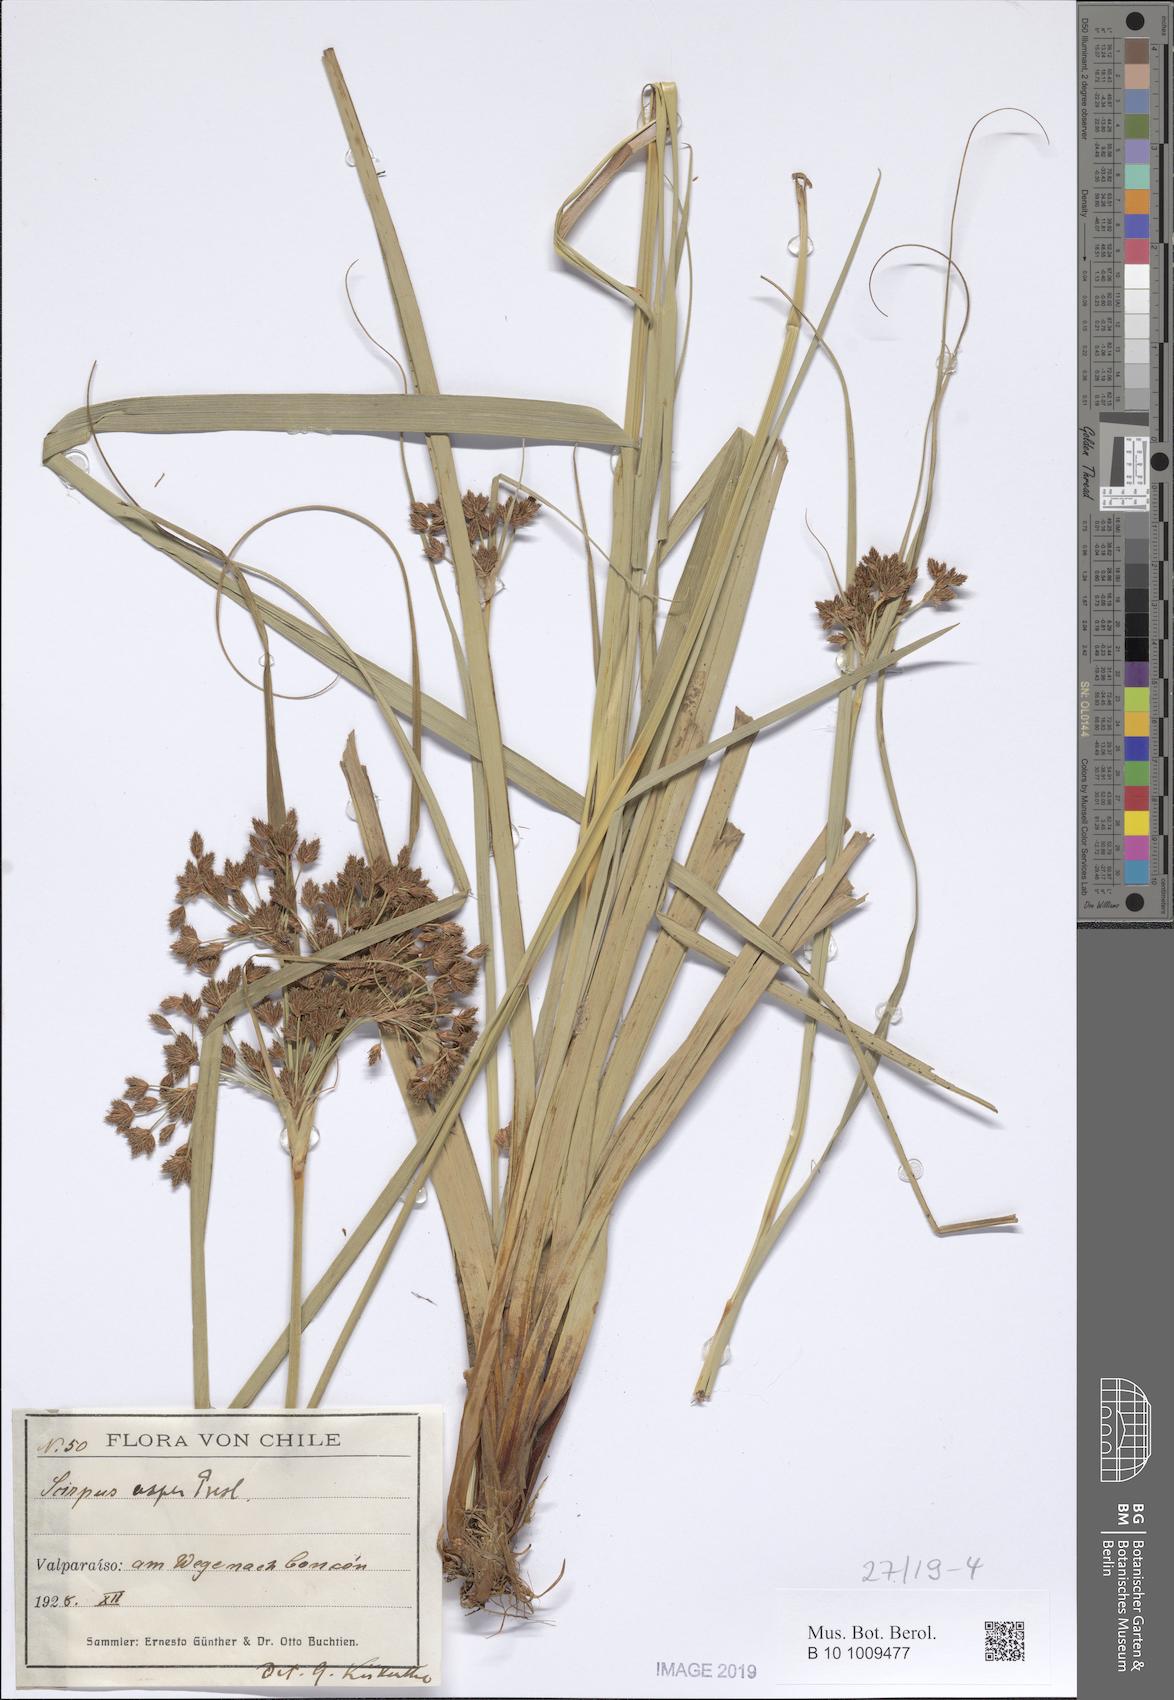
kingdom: Plantae
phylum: Tracheophyta
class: Liliopsida
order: Poales
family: Cyperaceae
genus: Rhodoscirpus
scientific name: Rhodoscirpus asper
